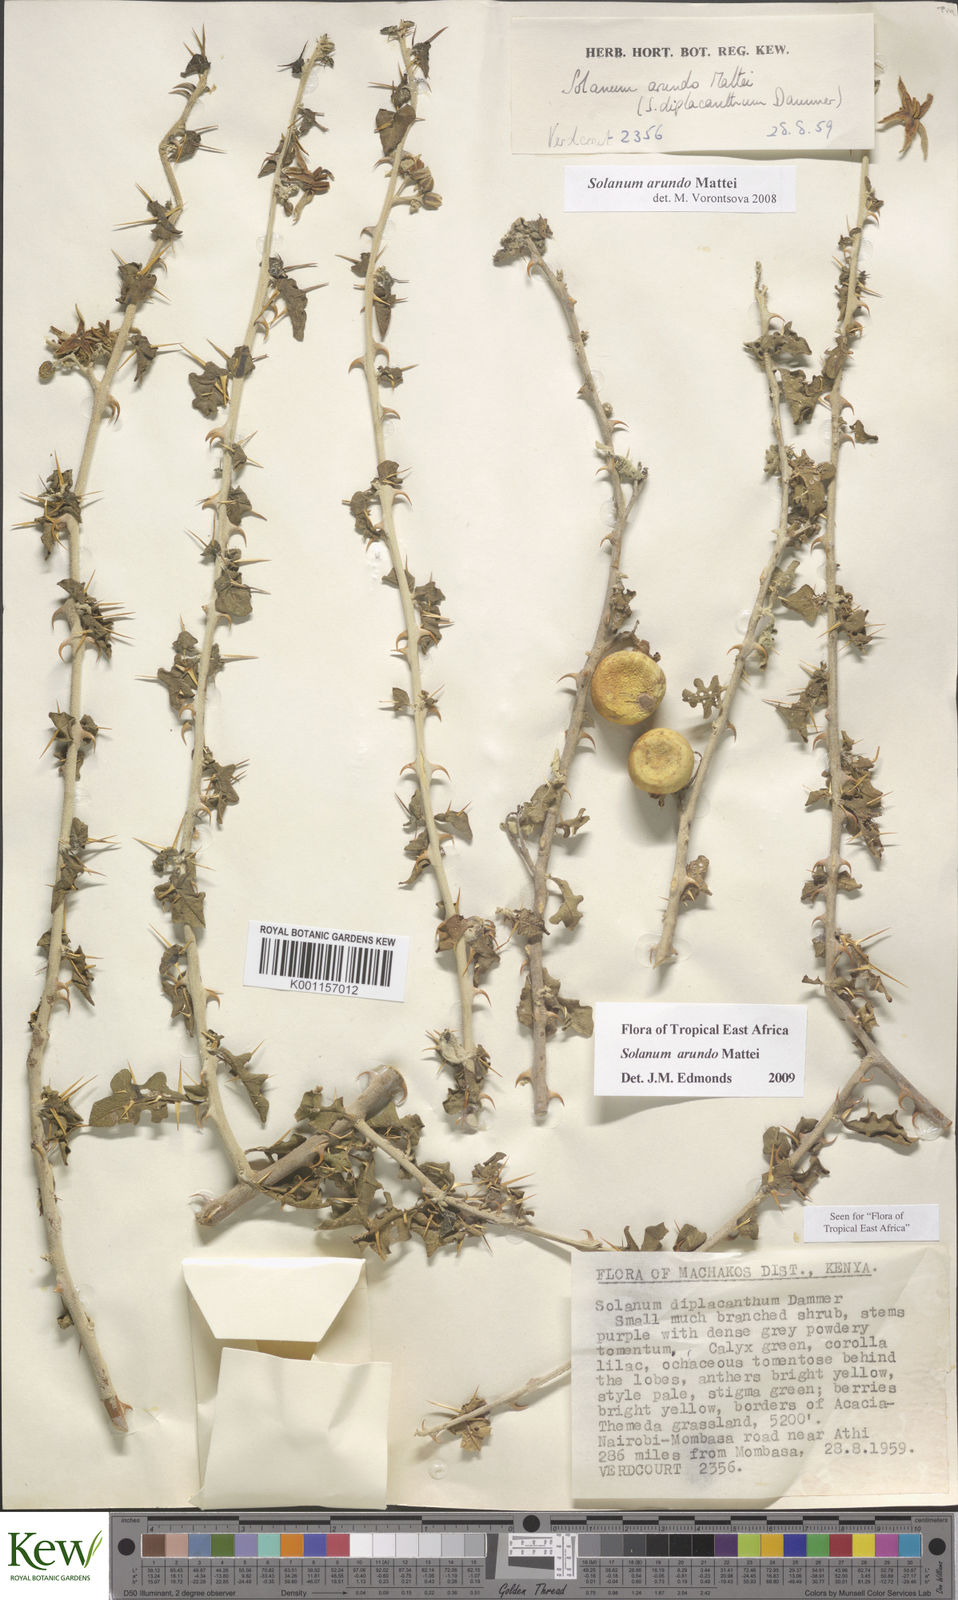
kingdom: Plantae
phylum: Tracheophyta
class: Magnoliopsida
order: Solanales
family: Solanaceae
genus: Solanum
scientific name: Solanum arundo
